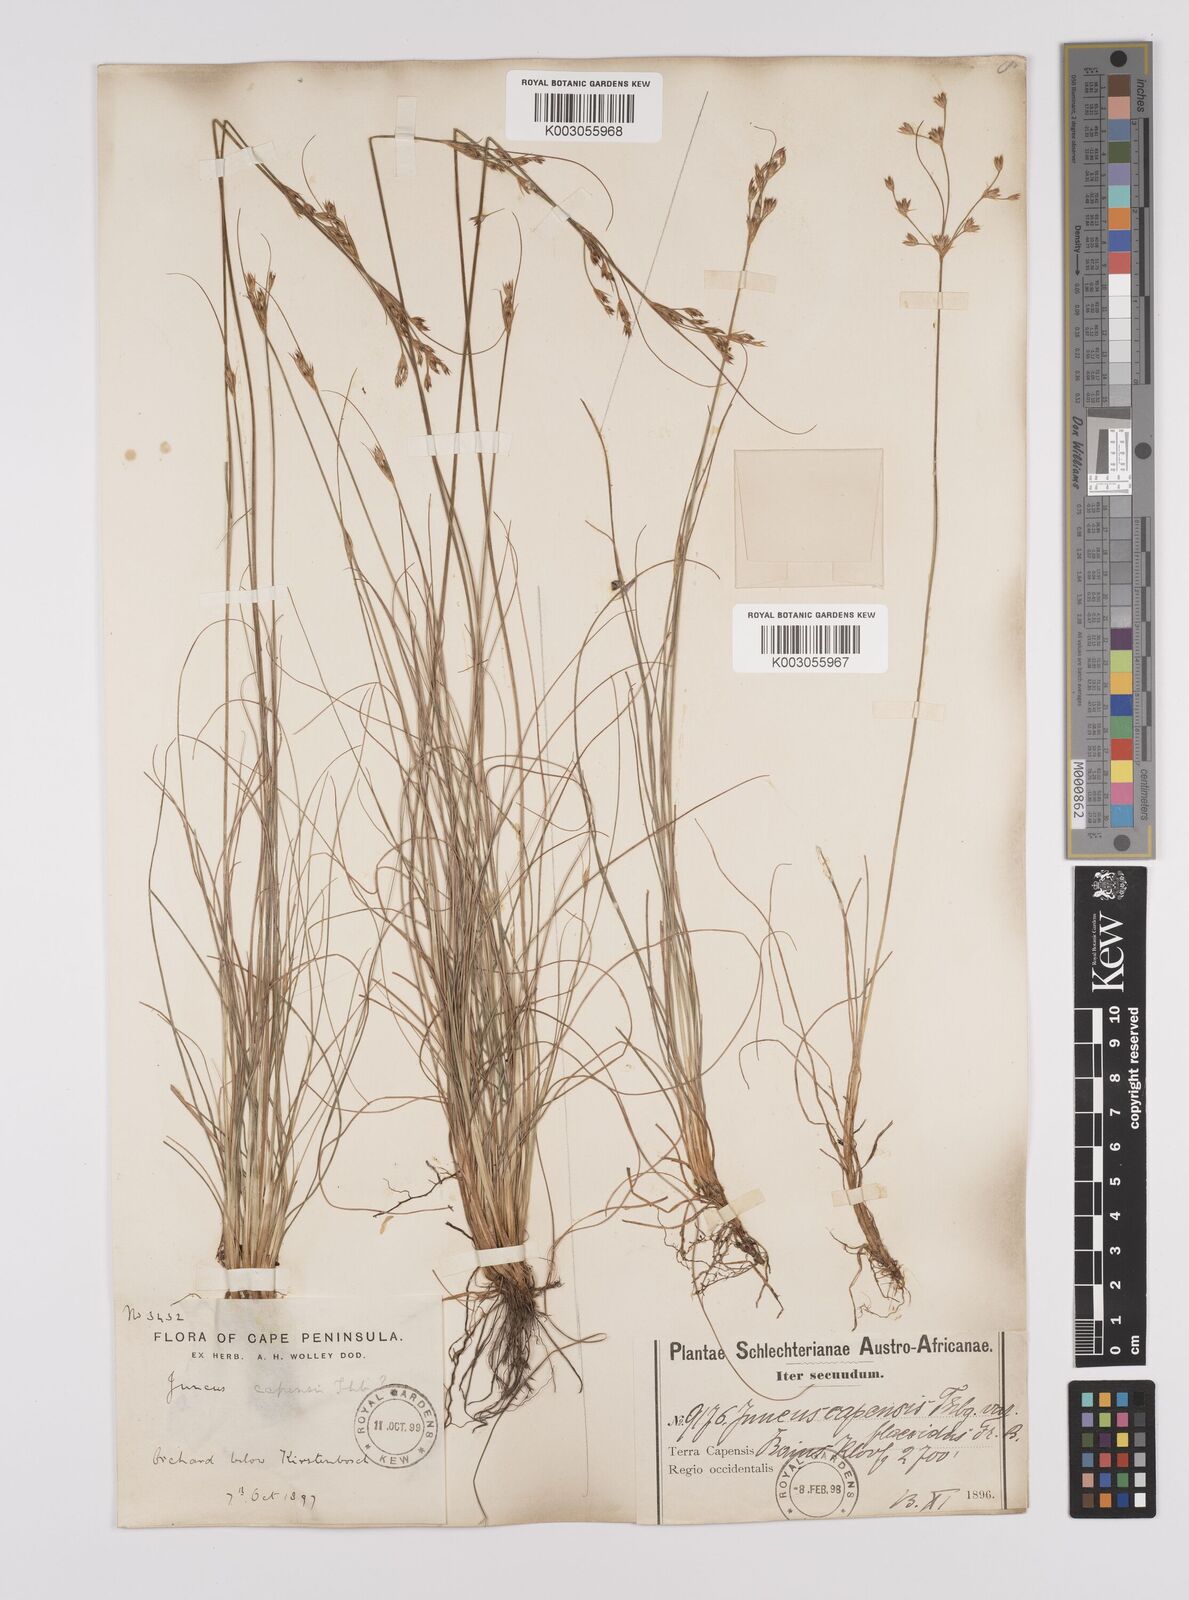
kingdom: Plantae
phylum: Tracheophyta
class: Liliopsida
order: Poales
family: Juncaceae
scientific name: Juncaceae
